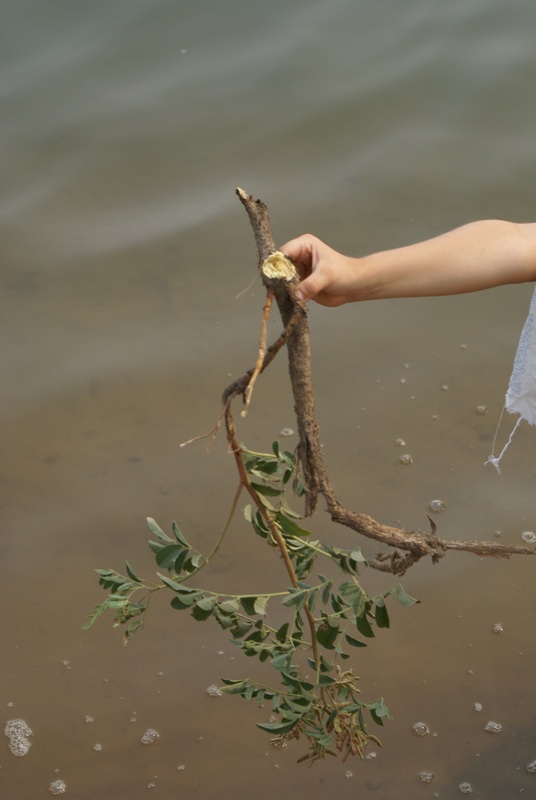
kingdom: Plantae
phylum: Tracheophyta
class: Magnoliopsida
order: Fabales
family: Fabaceae
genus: Glycyrrhiza
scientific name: Glycyrrhiza glabra
